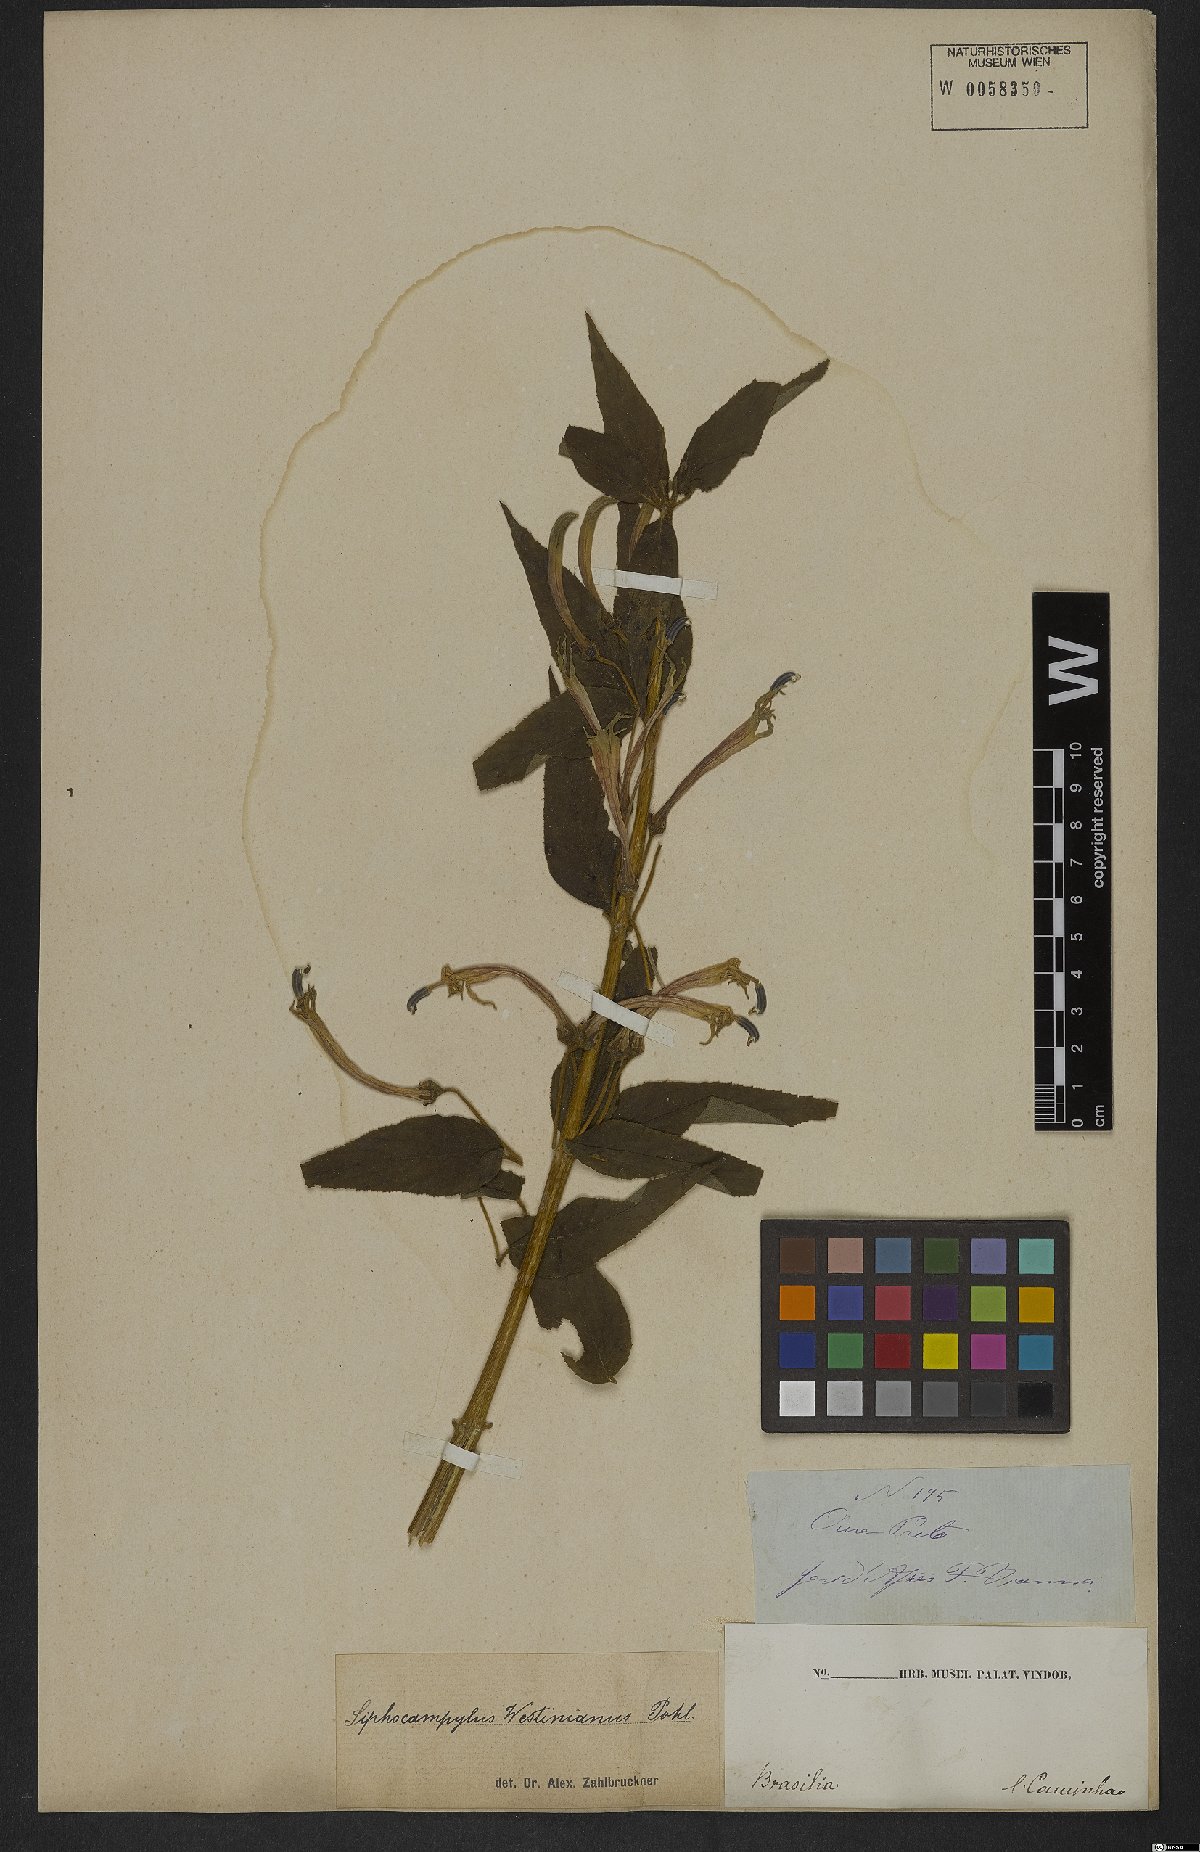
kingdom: Plantae
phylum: Tracheophyta
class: Magnoliopsida
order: Asterales
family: Campanulaceae
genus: Siphocampylus
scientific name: Siphocampylus westinianus
